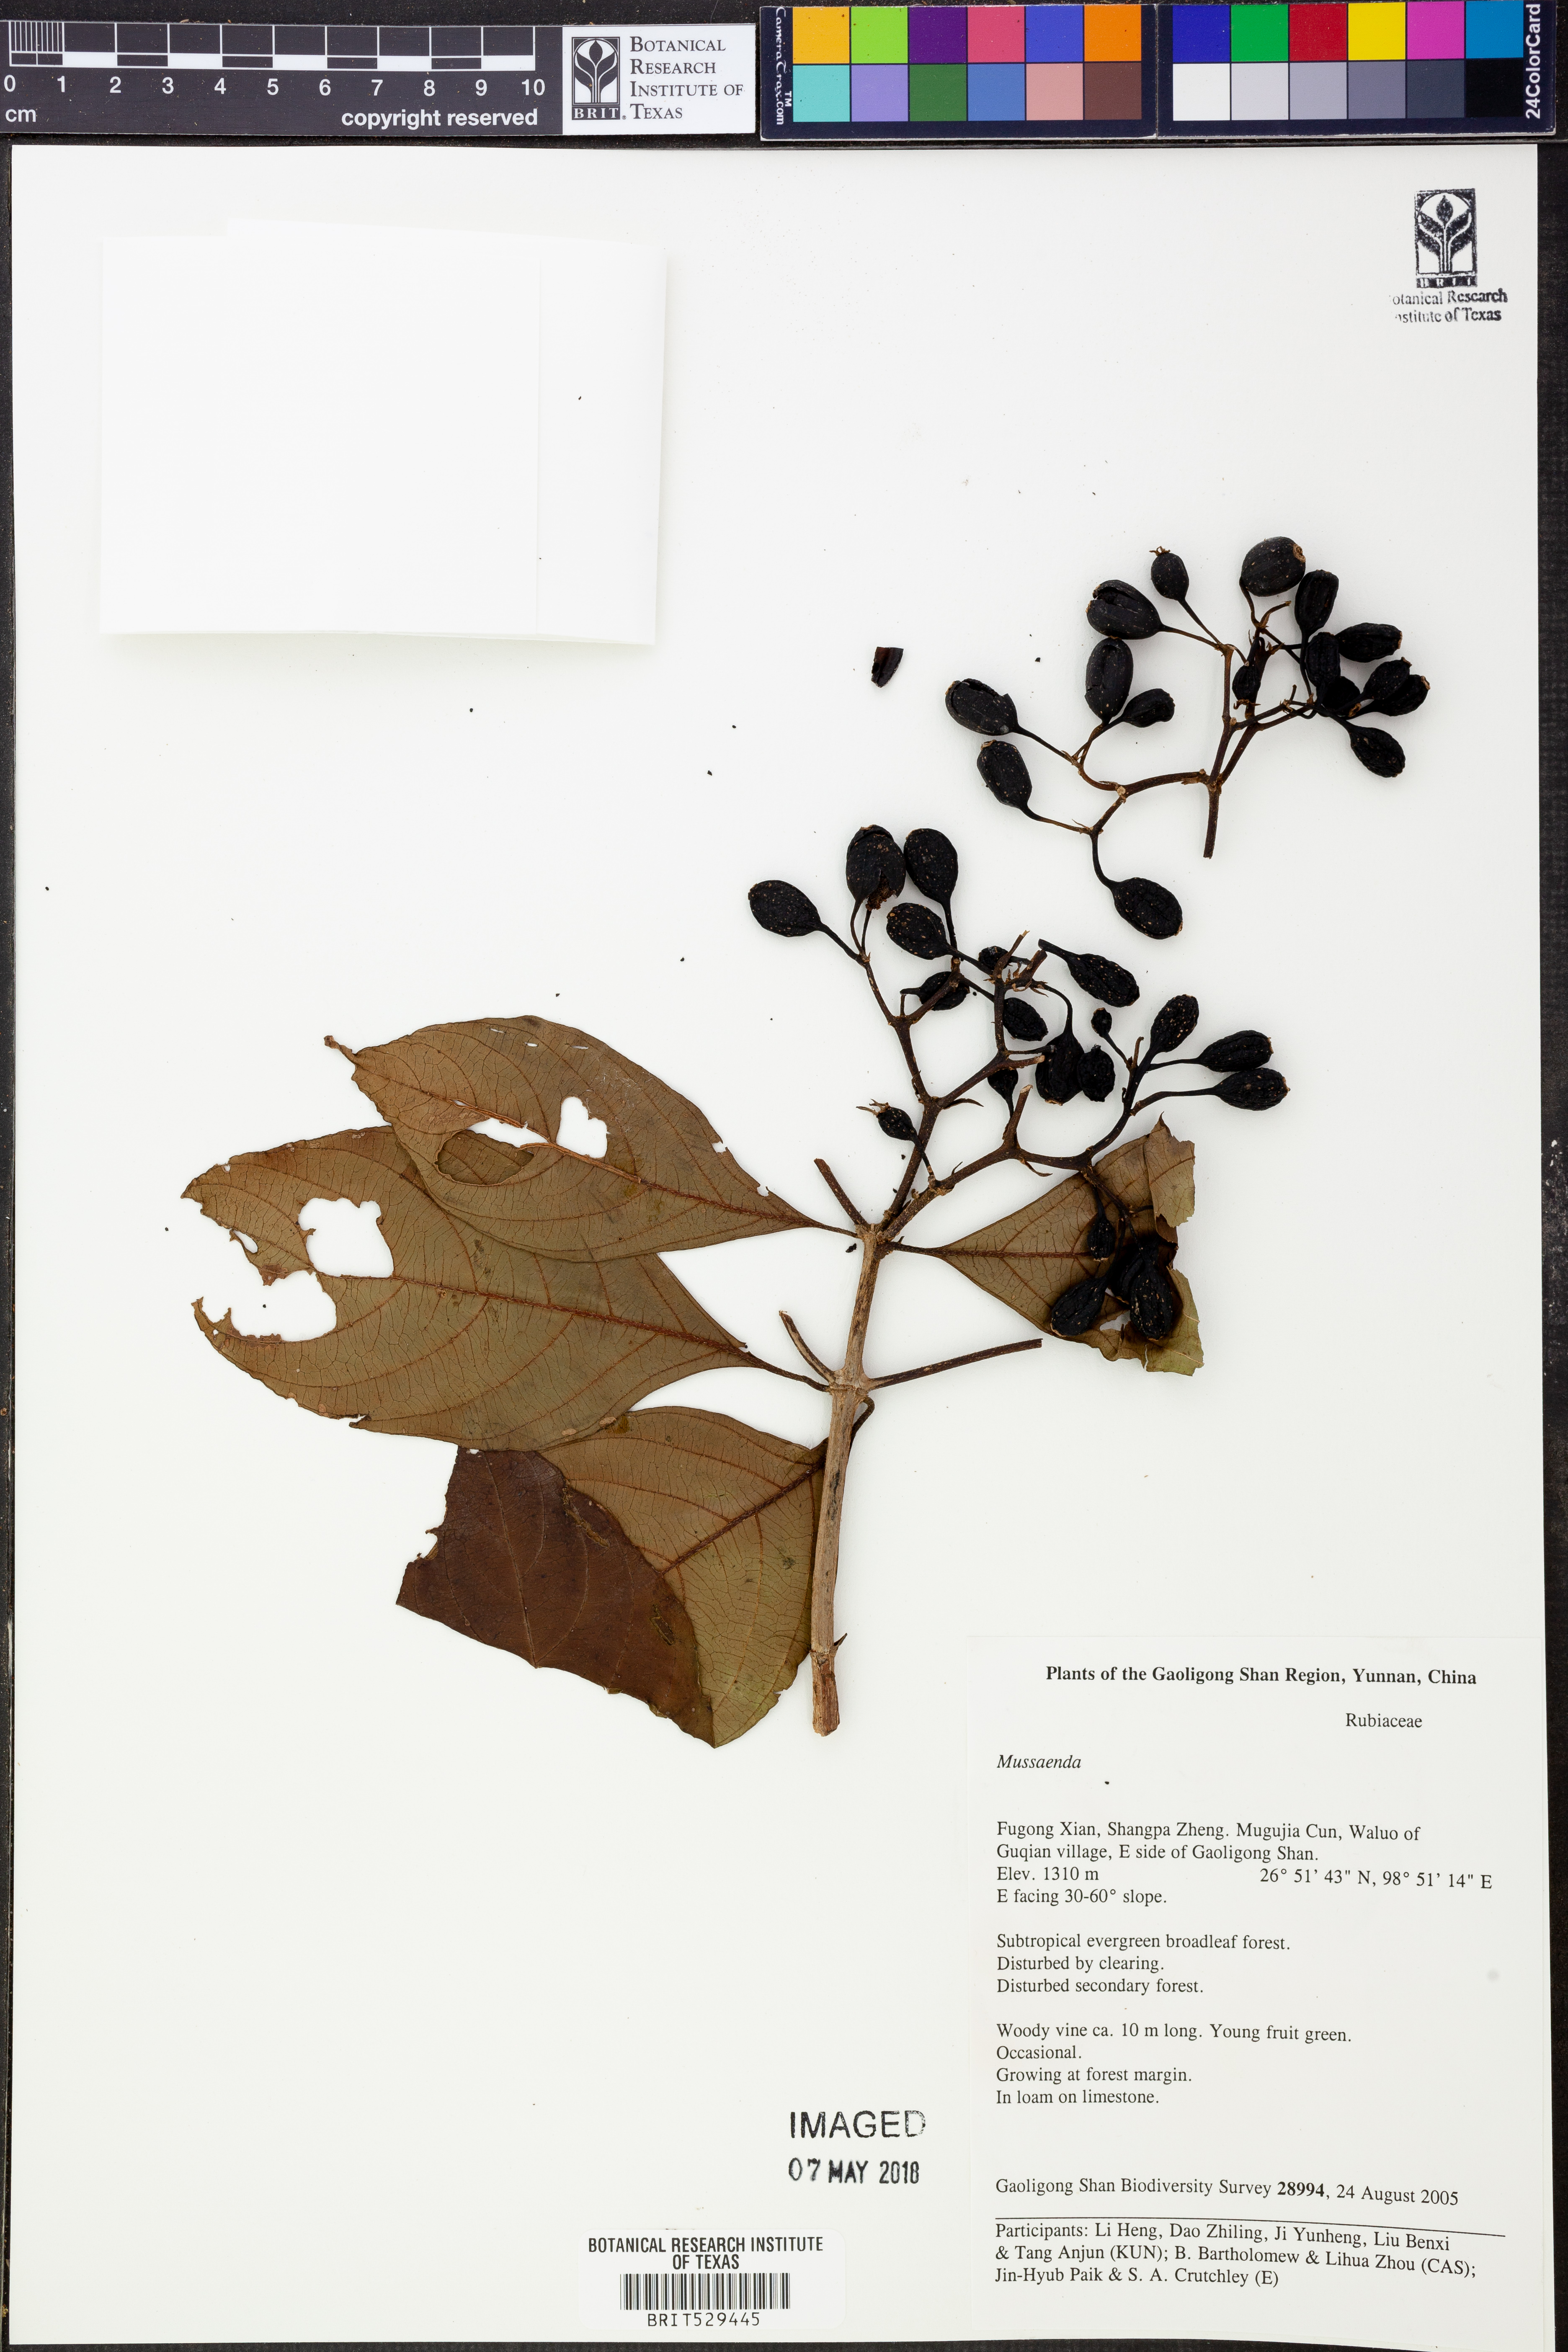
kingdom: Plantae
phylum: Tracheophyta
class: Magnoliopsida
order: Gentianales
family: Rubiaceae
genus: Mussaenda
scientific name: Mussaenda
